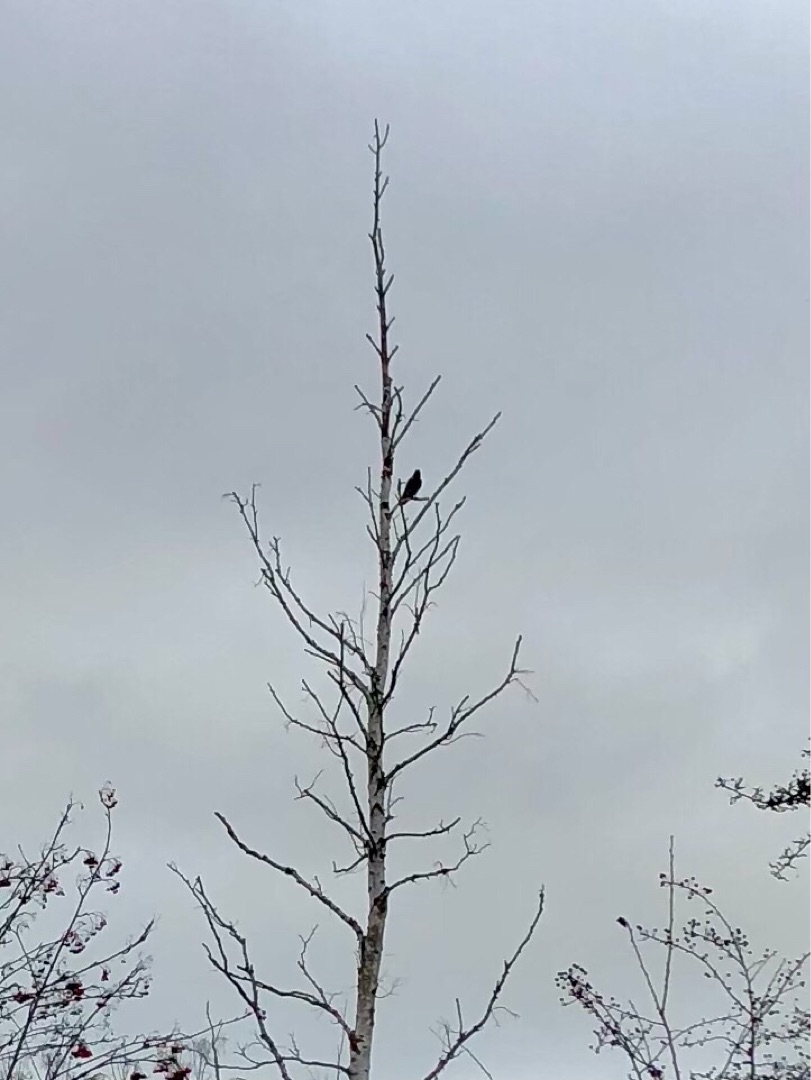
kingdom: Animalia
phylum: Chordata
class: Aves
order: Passeriformes
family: Corvidae
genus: Corvus
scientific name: Corvus cornix
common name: Gråkrage
